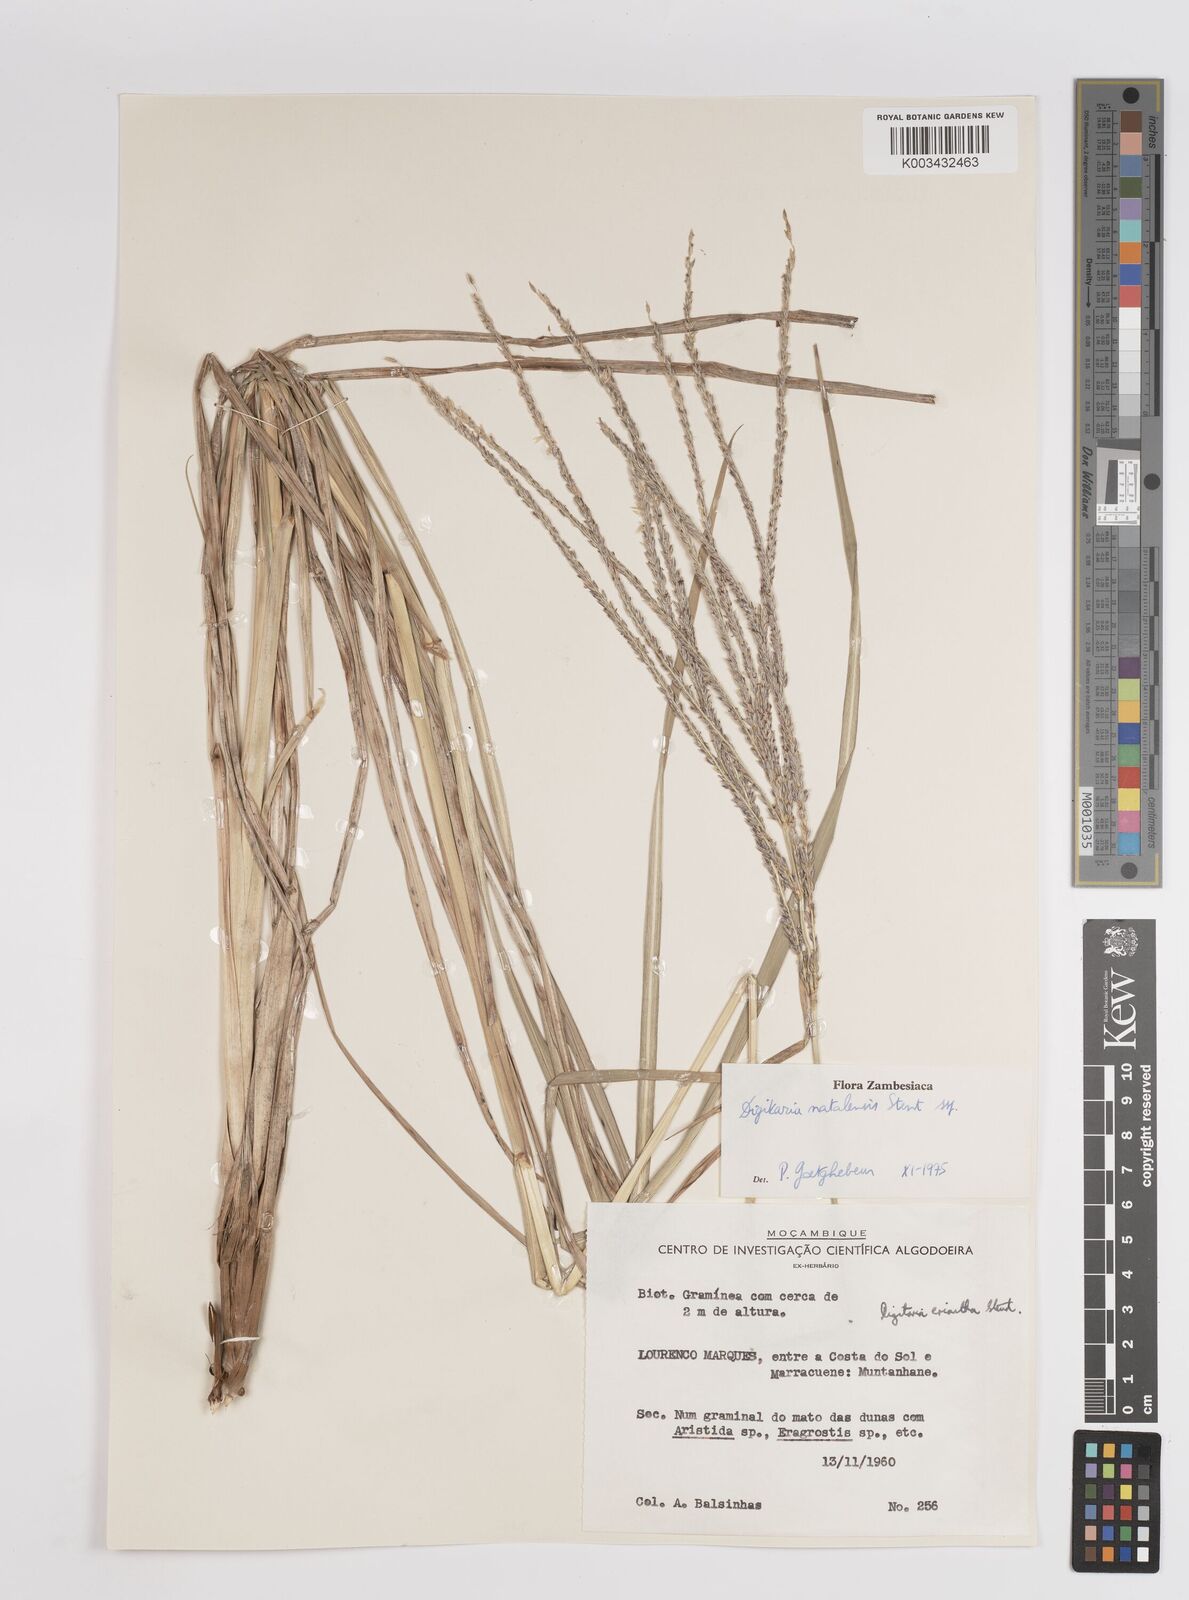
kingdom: Plantae
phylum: Tracheophyta
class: Liliopsida
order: Poales
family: Poaceae
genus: Digitaria
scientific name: Digitaria natalensis
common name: Coast finger grass
